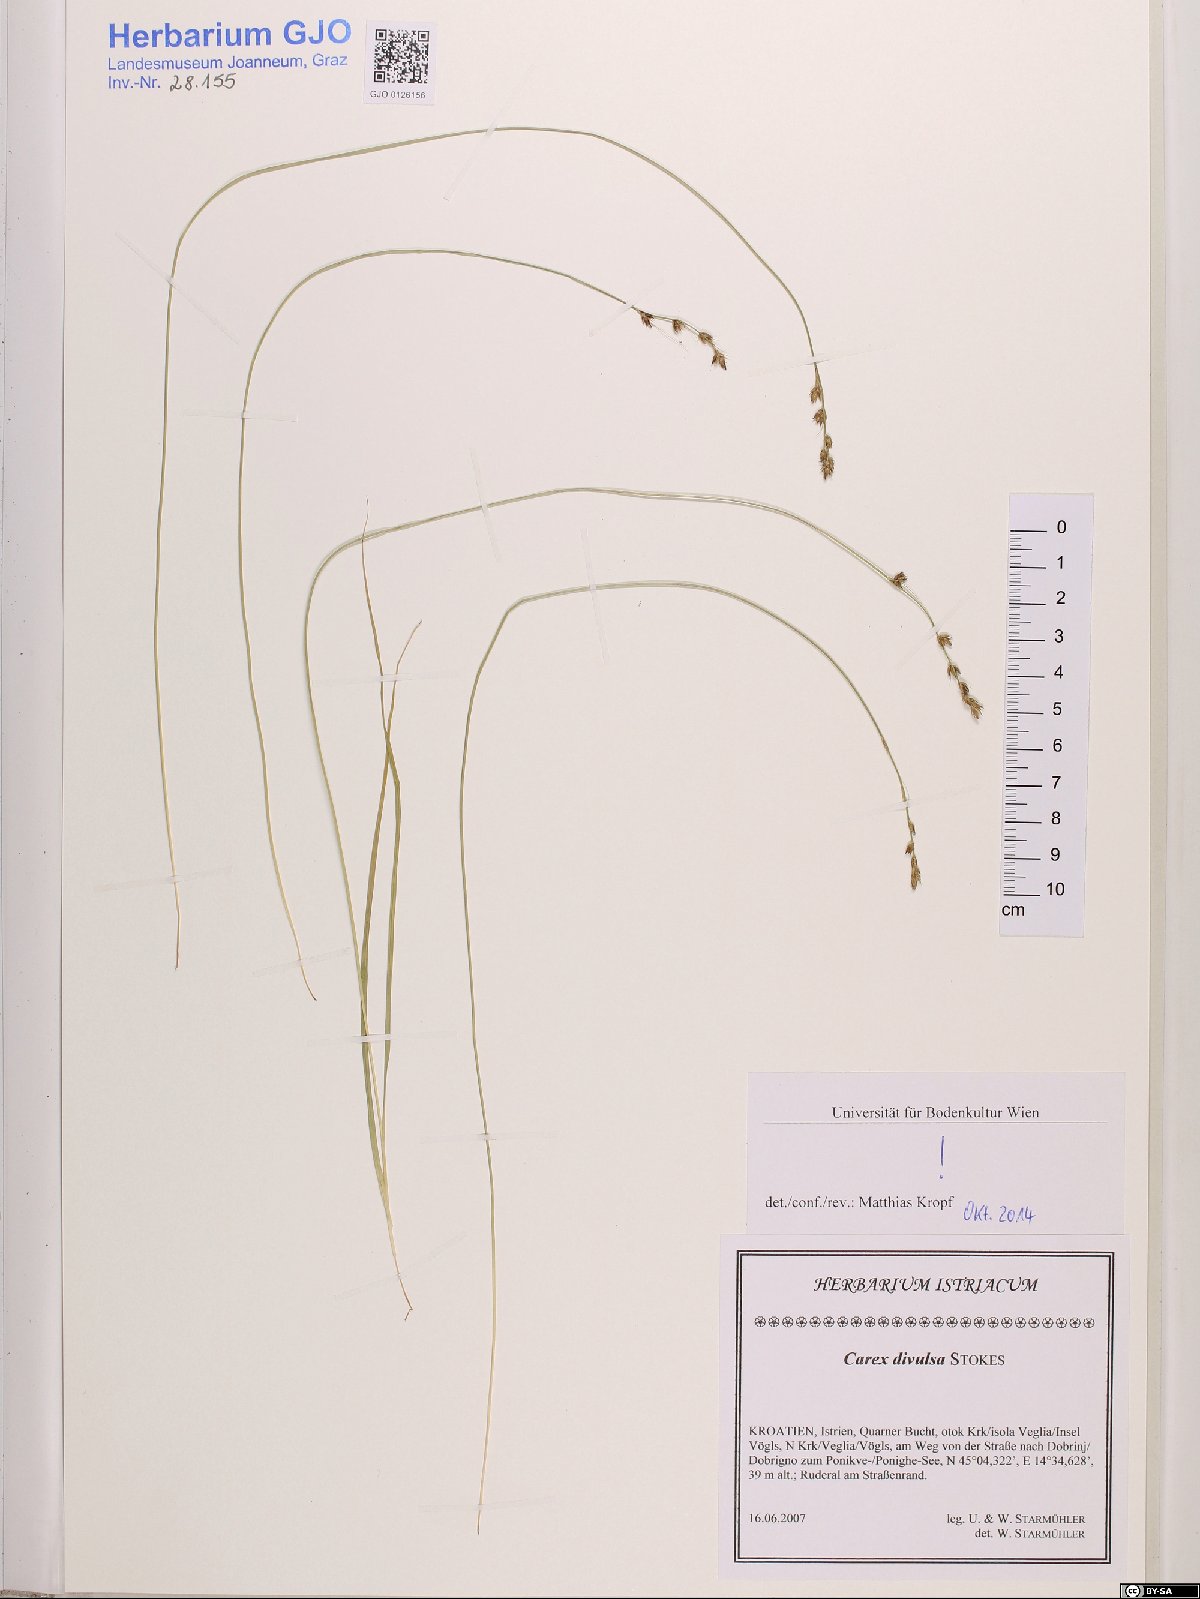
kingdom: Plantae
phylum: Tracheophyta
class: Liliopsida
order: Poales
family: Cyperaceae
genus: Carex
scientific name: Carex divulsa
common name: Grassland sedge
